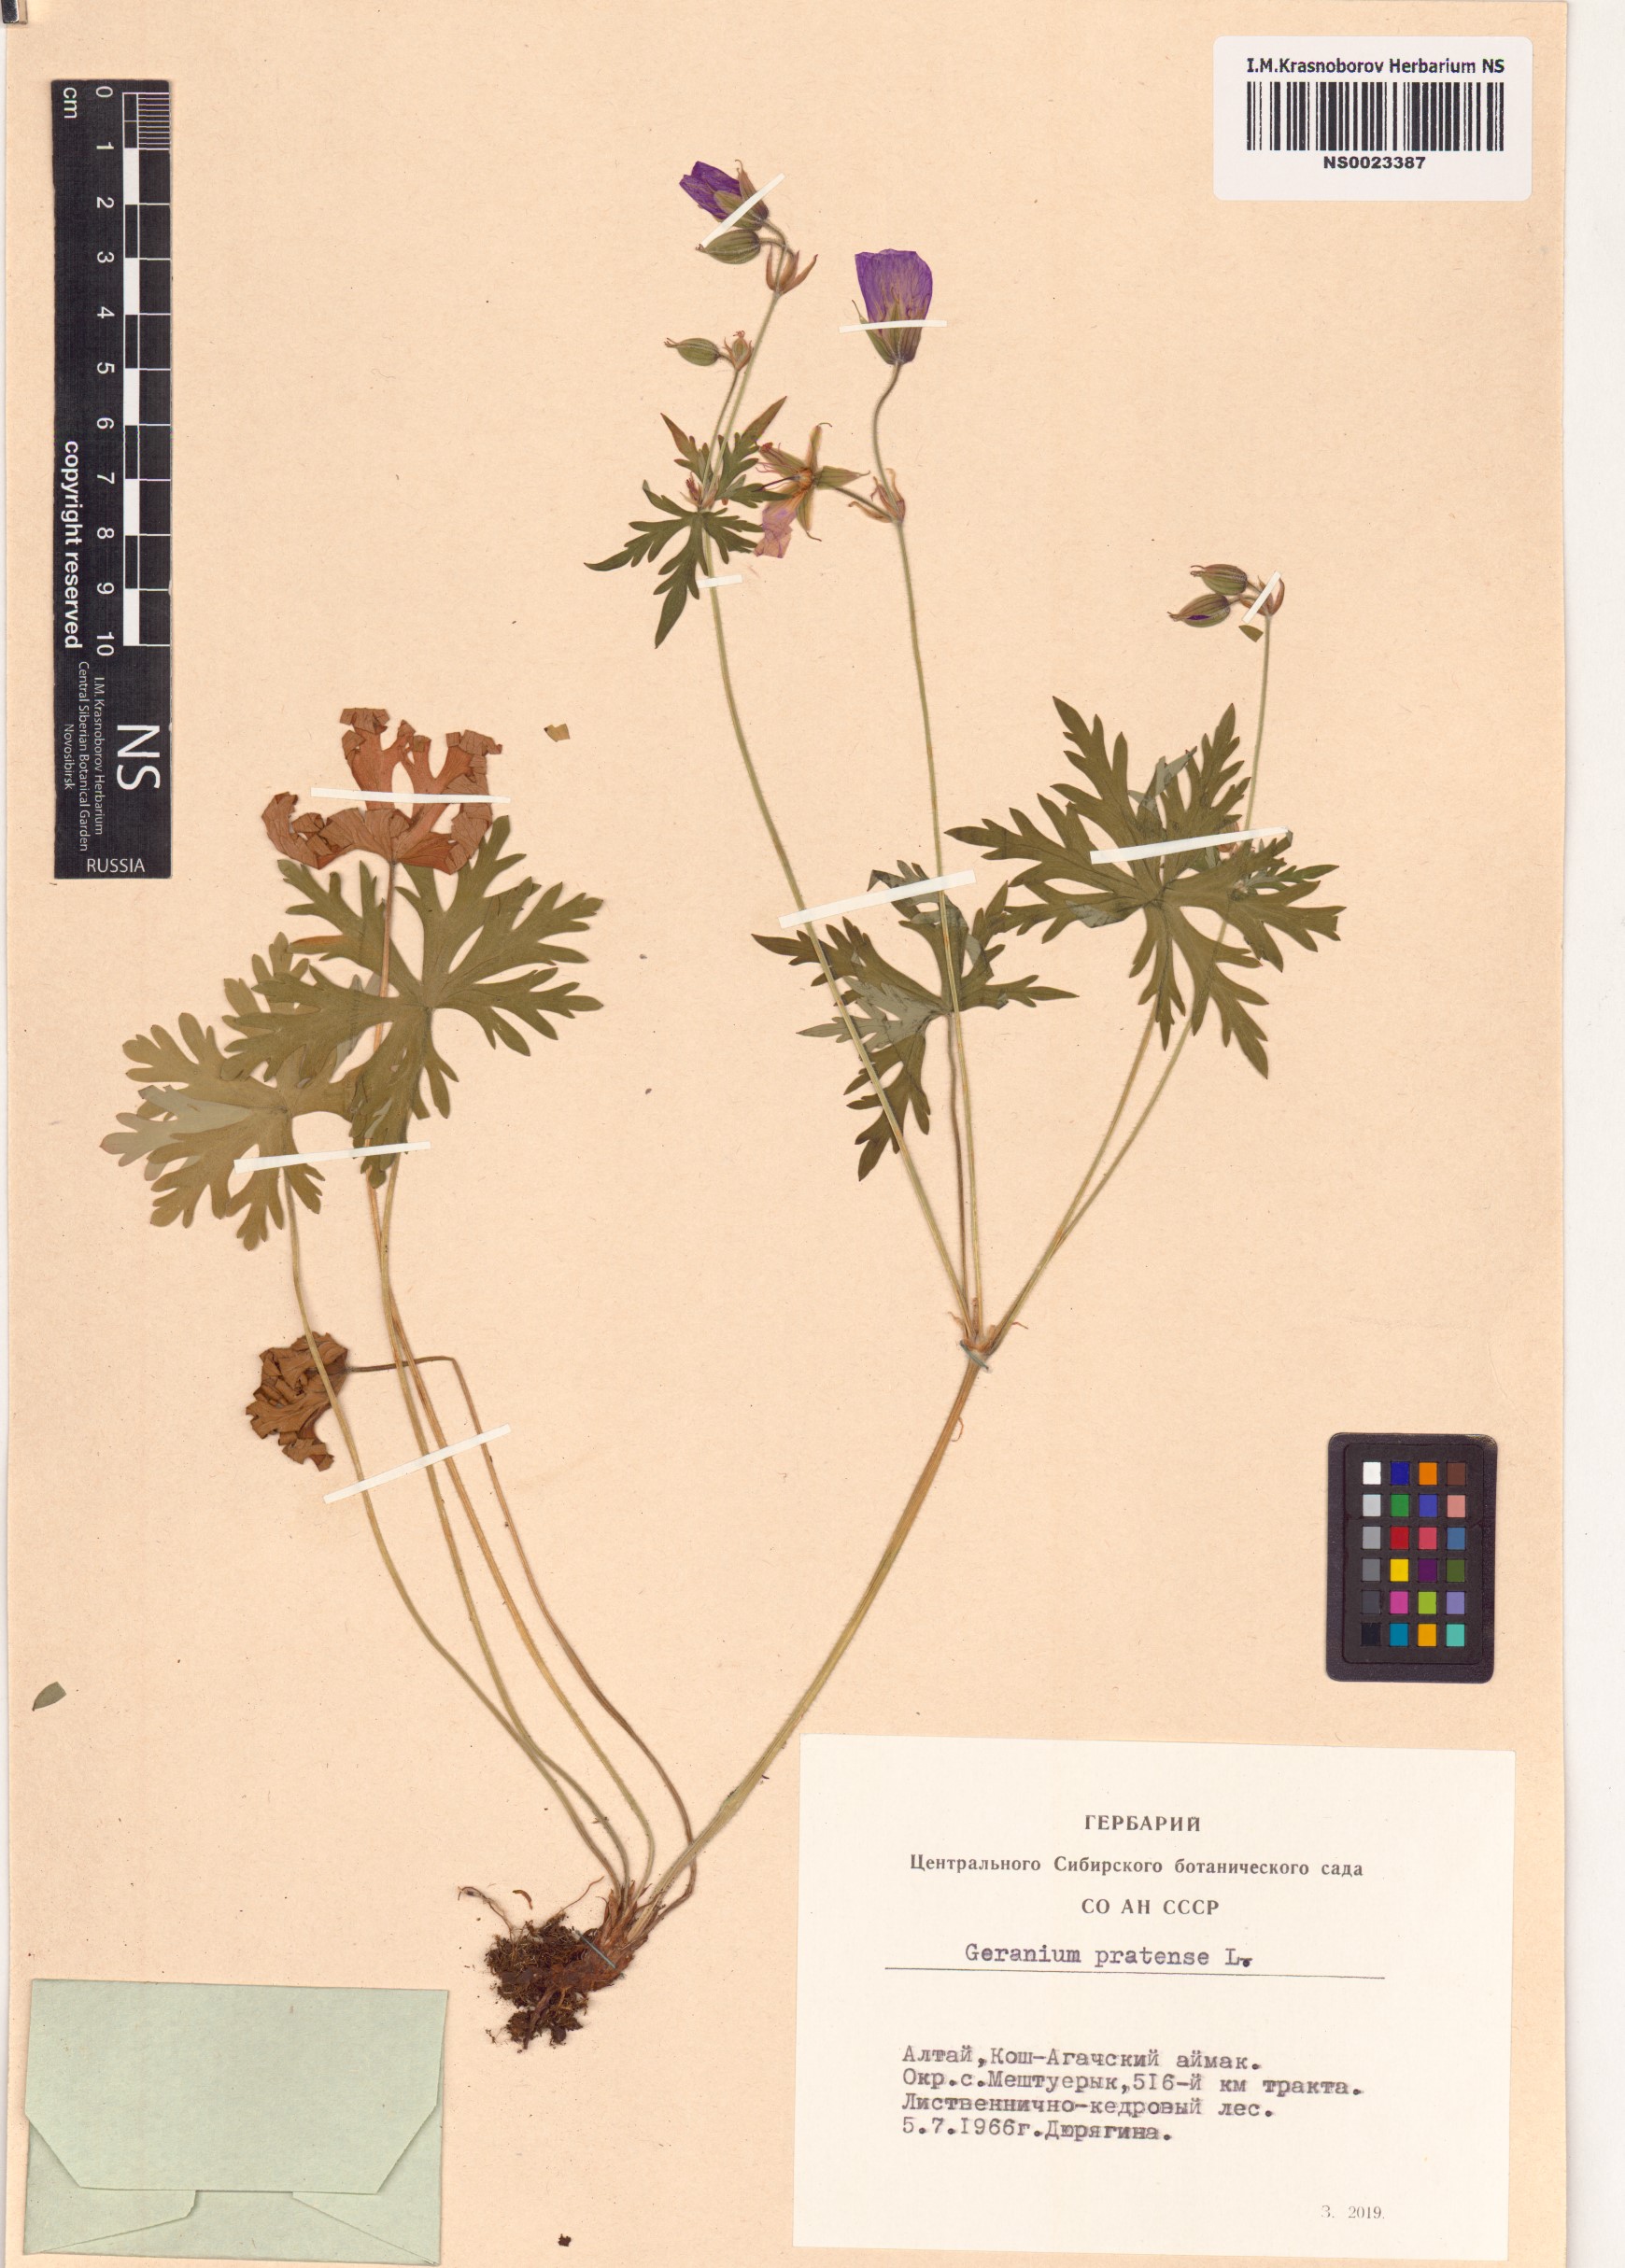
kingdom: Plantae
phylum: Tracheophyta
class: Magnoliopsida
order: Geraniales
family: Geraniaceae
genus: Geranium
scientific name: Geranium pratense
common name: Meadow crane's-bill
